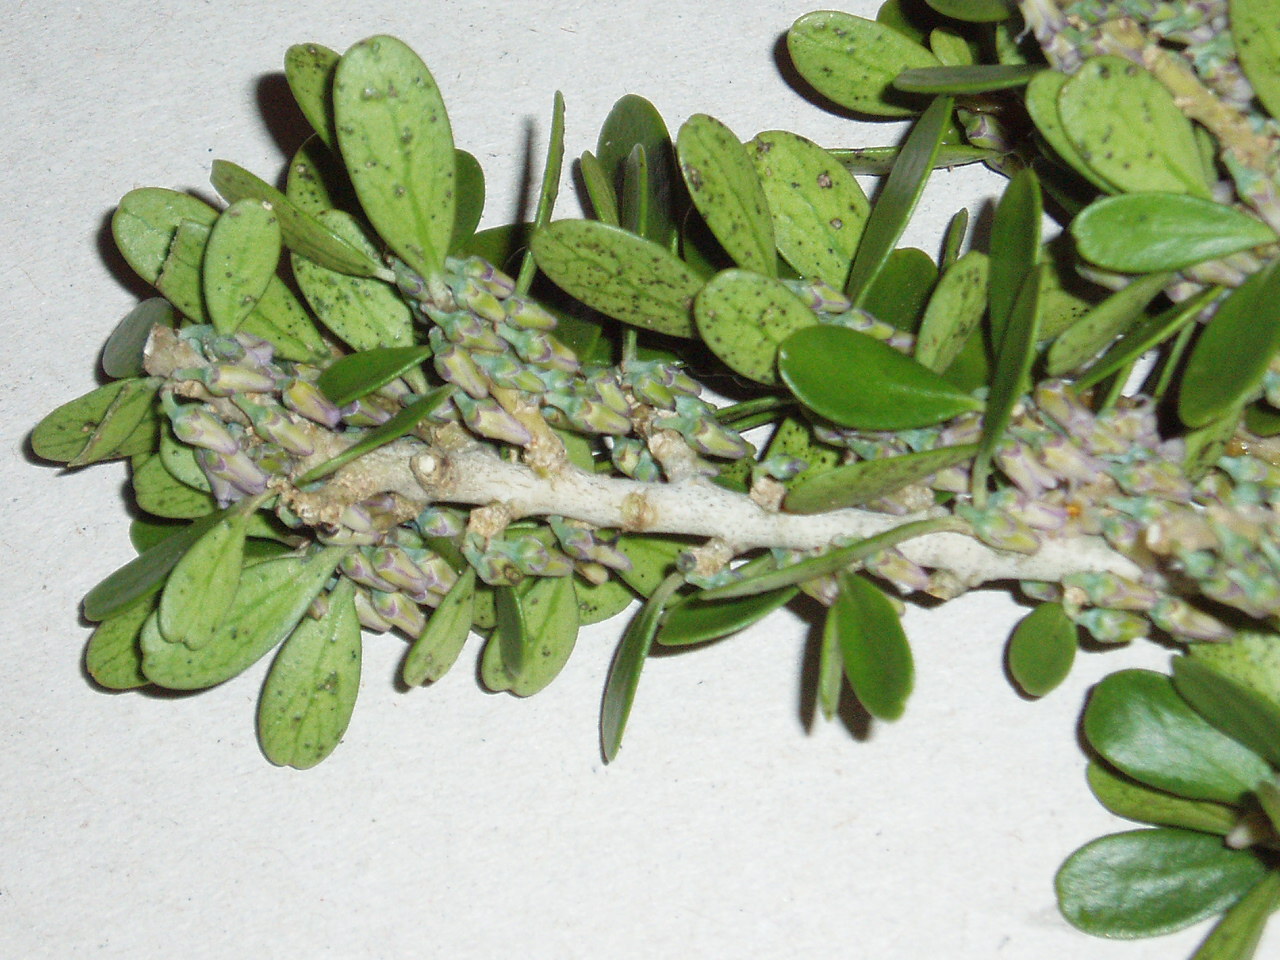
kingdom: Plantae
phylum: Tracheophyta
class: Magnoliopsida
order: Malpighiales
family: Violaceae
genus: Melicytus
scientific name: Melicytus obovatus
